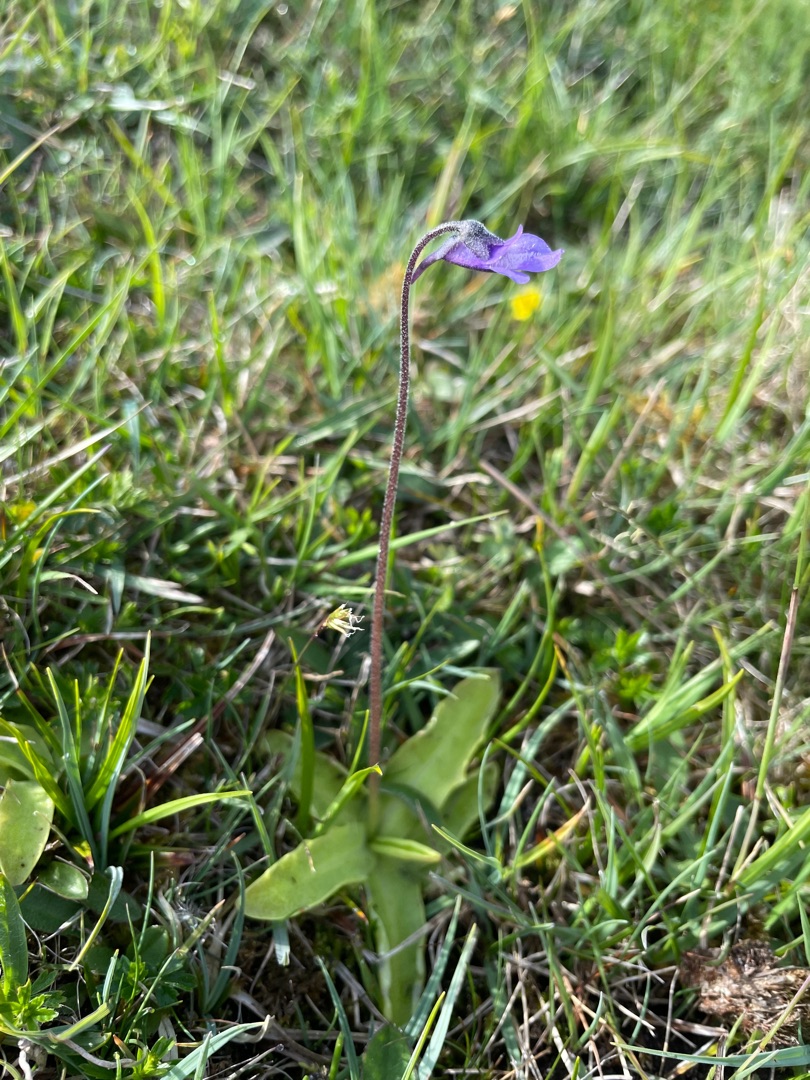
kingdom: Plantae
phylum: Tracheophyta
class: Magnoliopsida
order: Lamiales
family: Lentibulariaceae
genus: Pinguicula
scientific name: Pinguicula vulgaris
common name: Vibefedt
